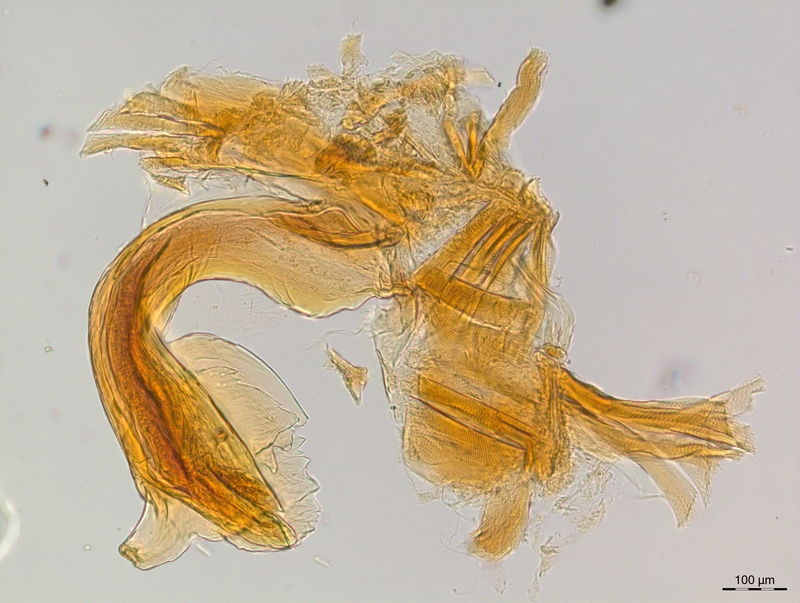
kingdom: Animalia
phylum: Arthropoda
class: Diplopoda
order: Chordeumatida
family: Craspedosomatidae
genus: Craspedosoma
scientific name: Craspedosoma taurinorum
